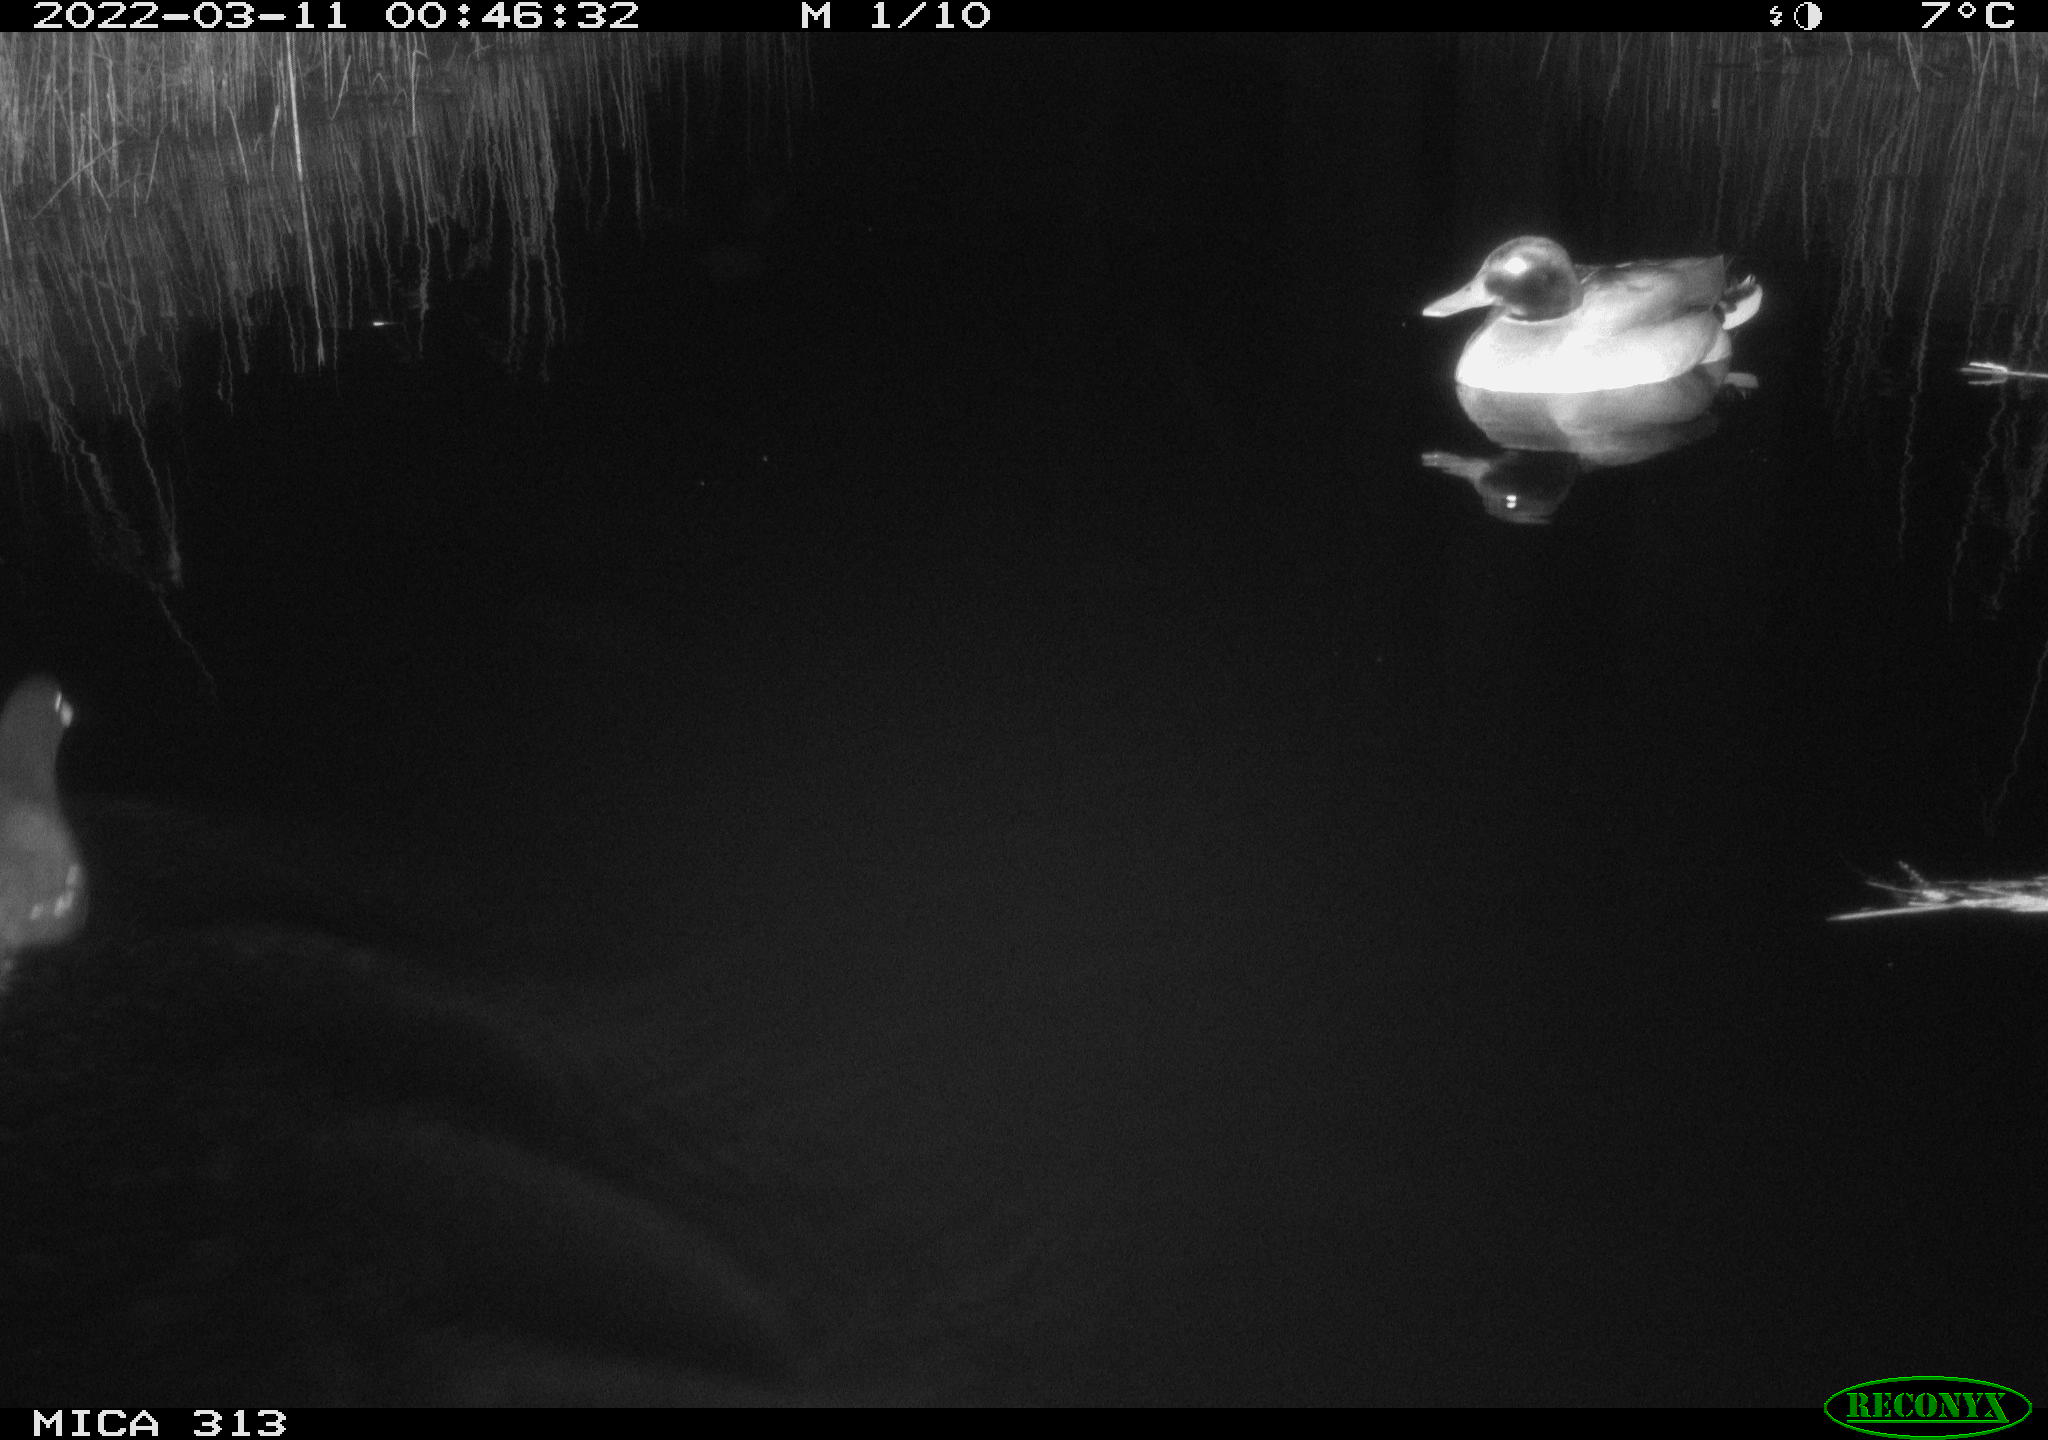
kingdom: Animalia
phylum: Chordata
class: Aves
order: Gruiformes
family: Rallidae
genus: Gallinula
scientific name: Gallinula chloropus
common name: Common moorhen
